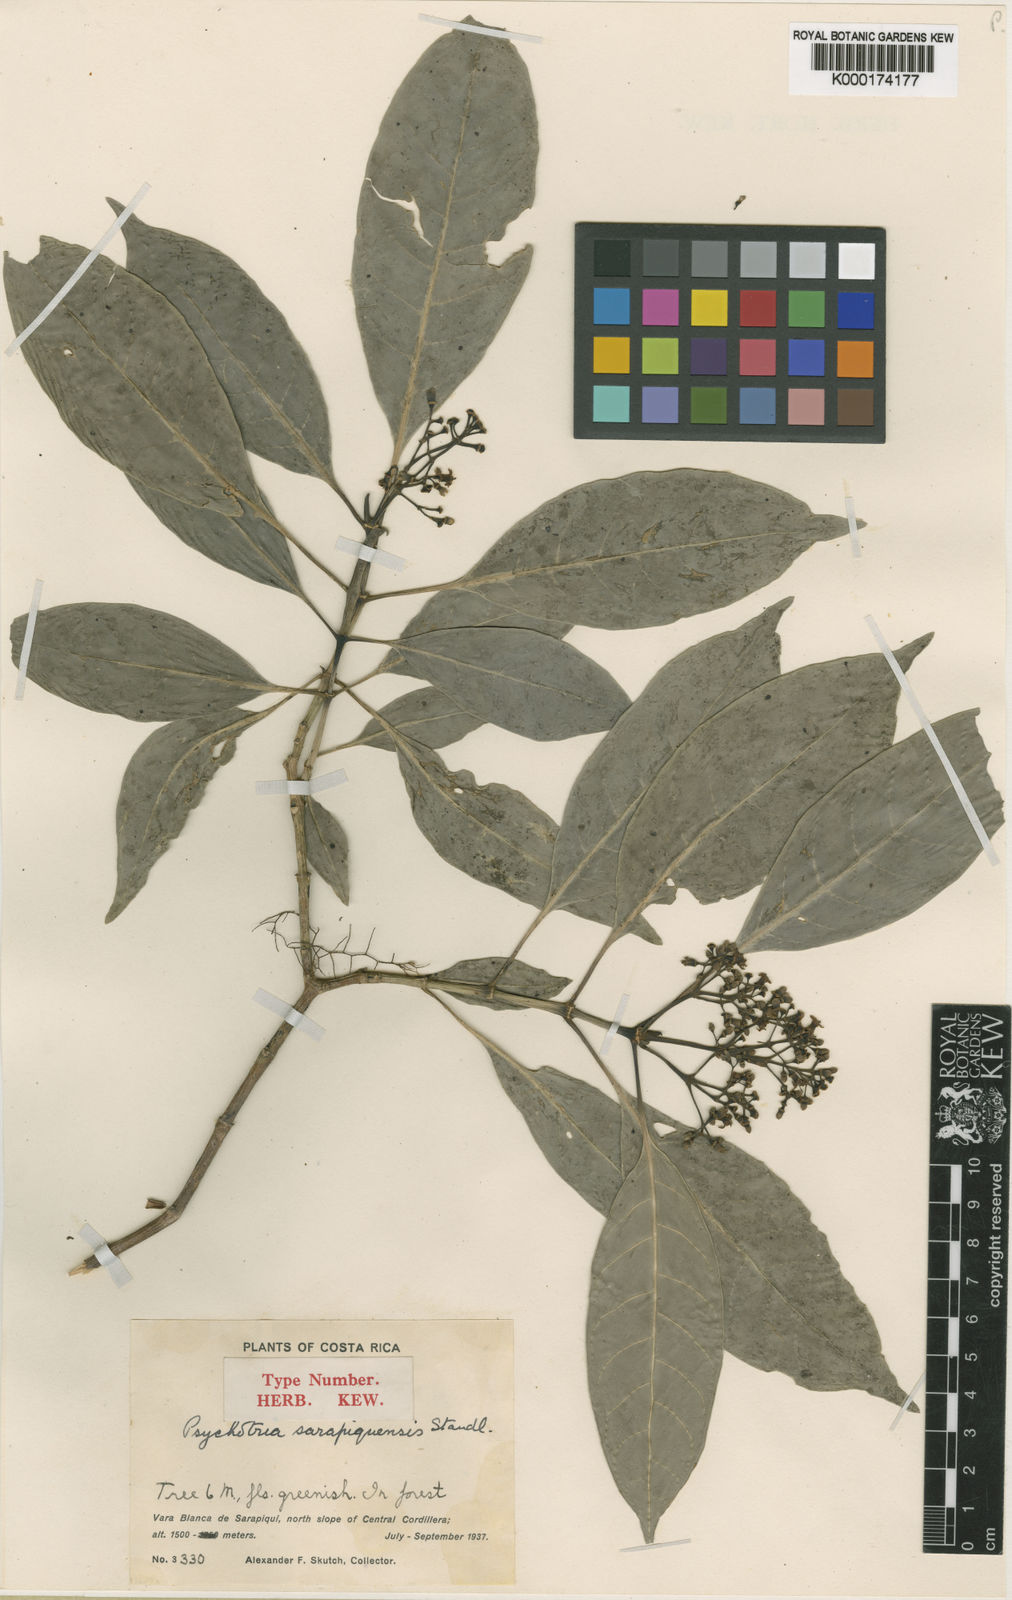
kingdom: Plantae
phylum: Tracheophyta
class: Magnoliopsida
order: Gentianales
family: Rubiaceae
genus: Psychotria
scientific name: Psychotria
